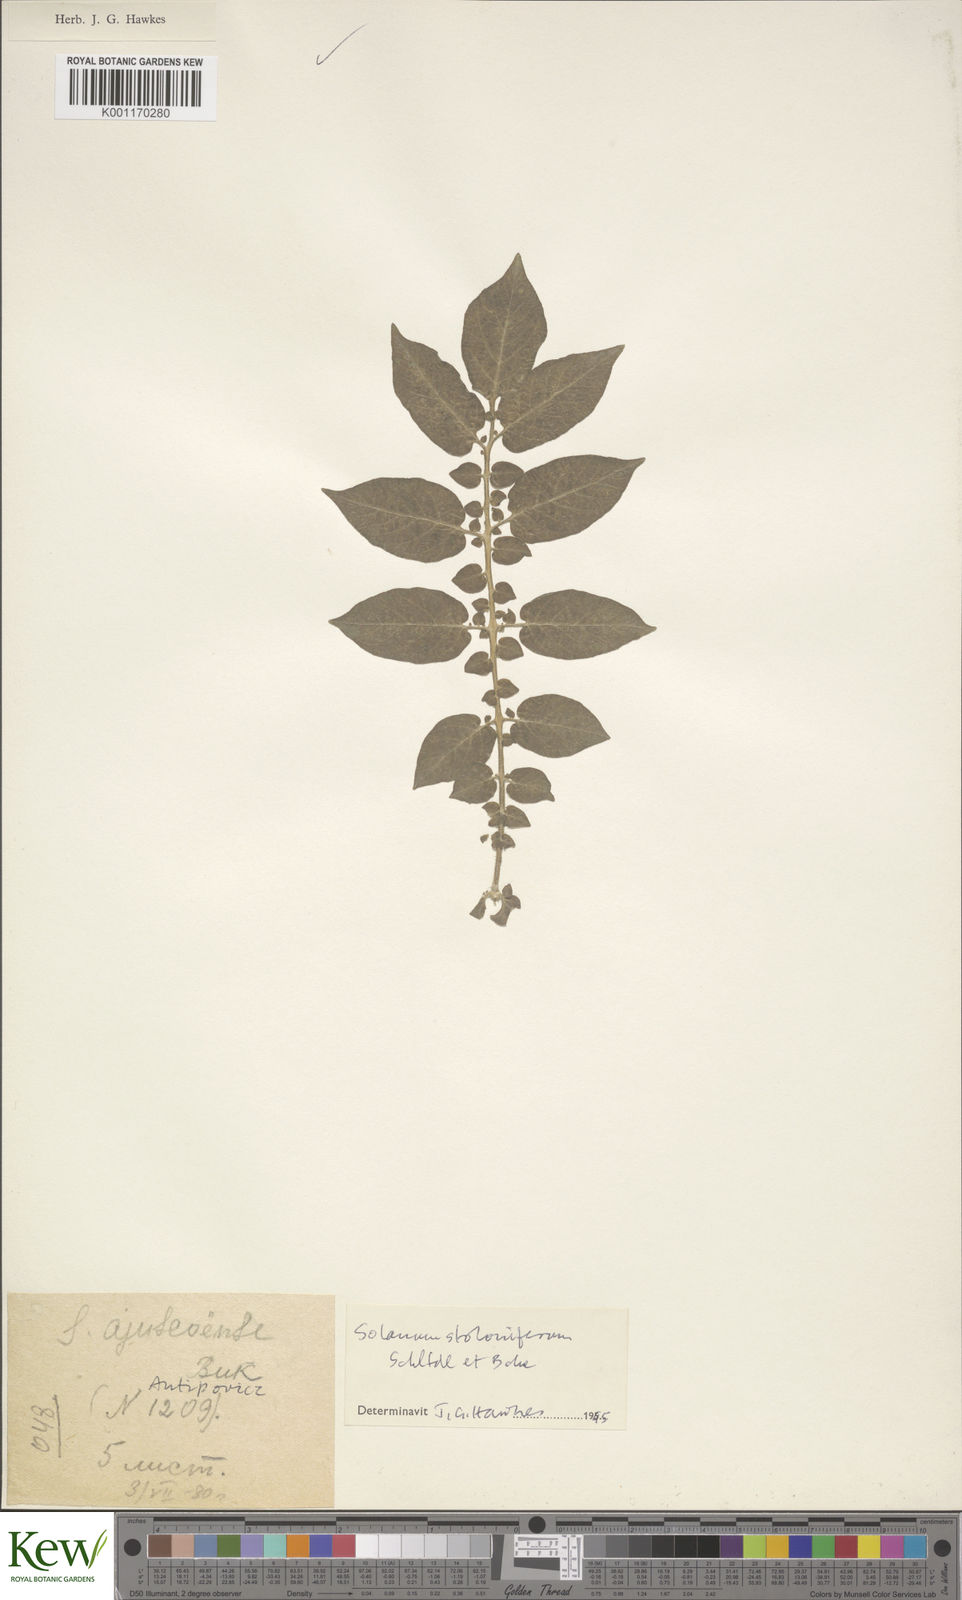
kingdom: Plantae
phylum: Tracheophyta
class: Magnoliopsida
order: Solanales
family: Solanaceae
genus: Solanum
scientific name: Solanum stoloniferum
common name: Fendler's nighshade
